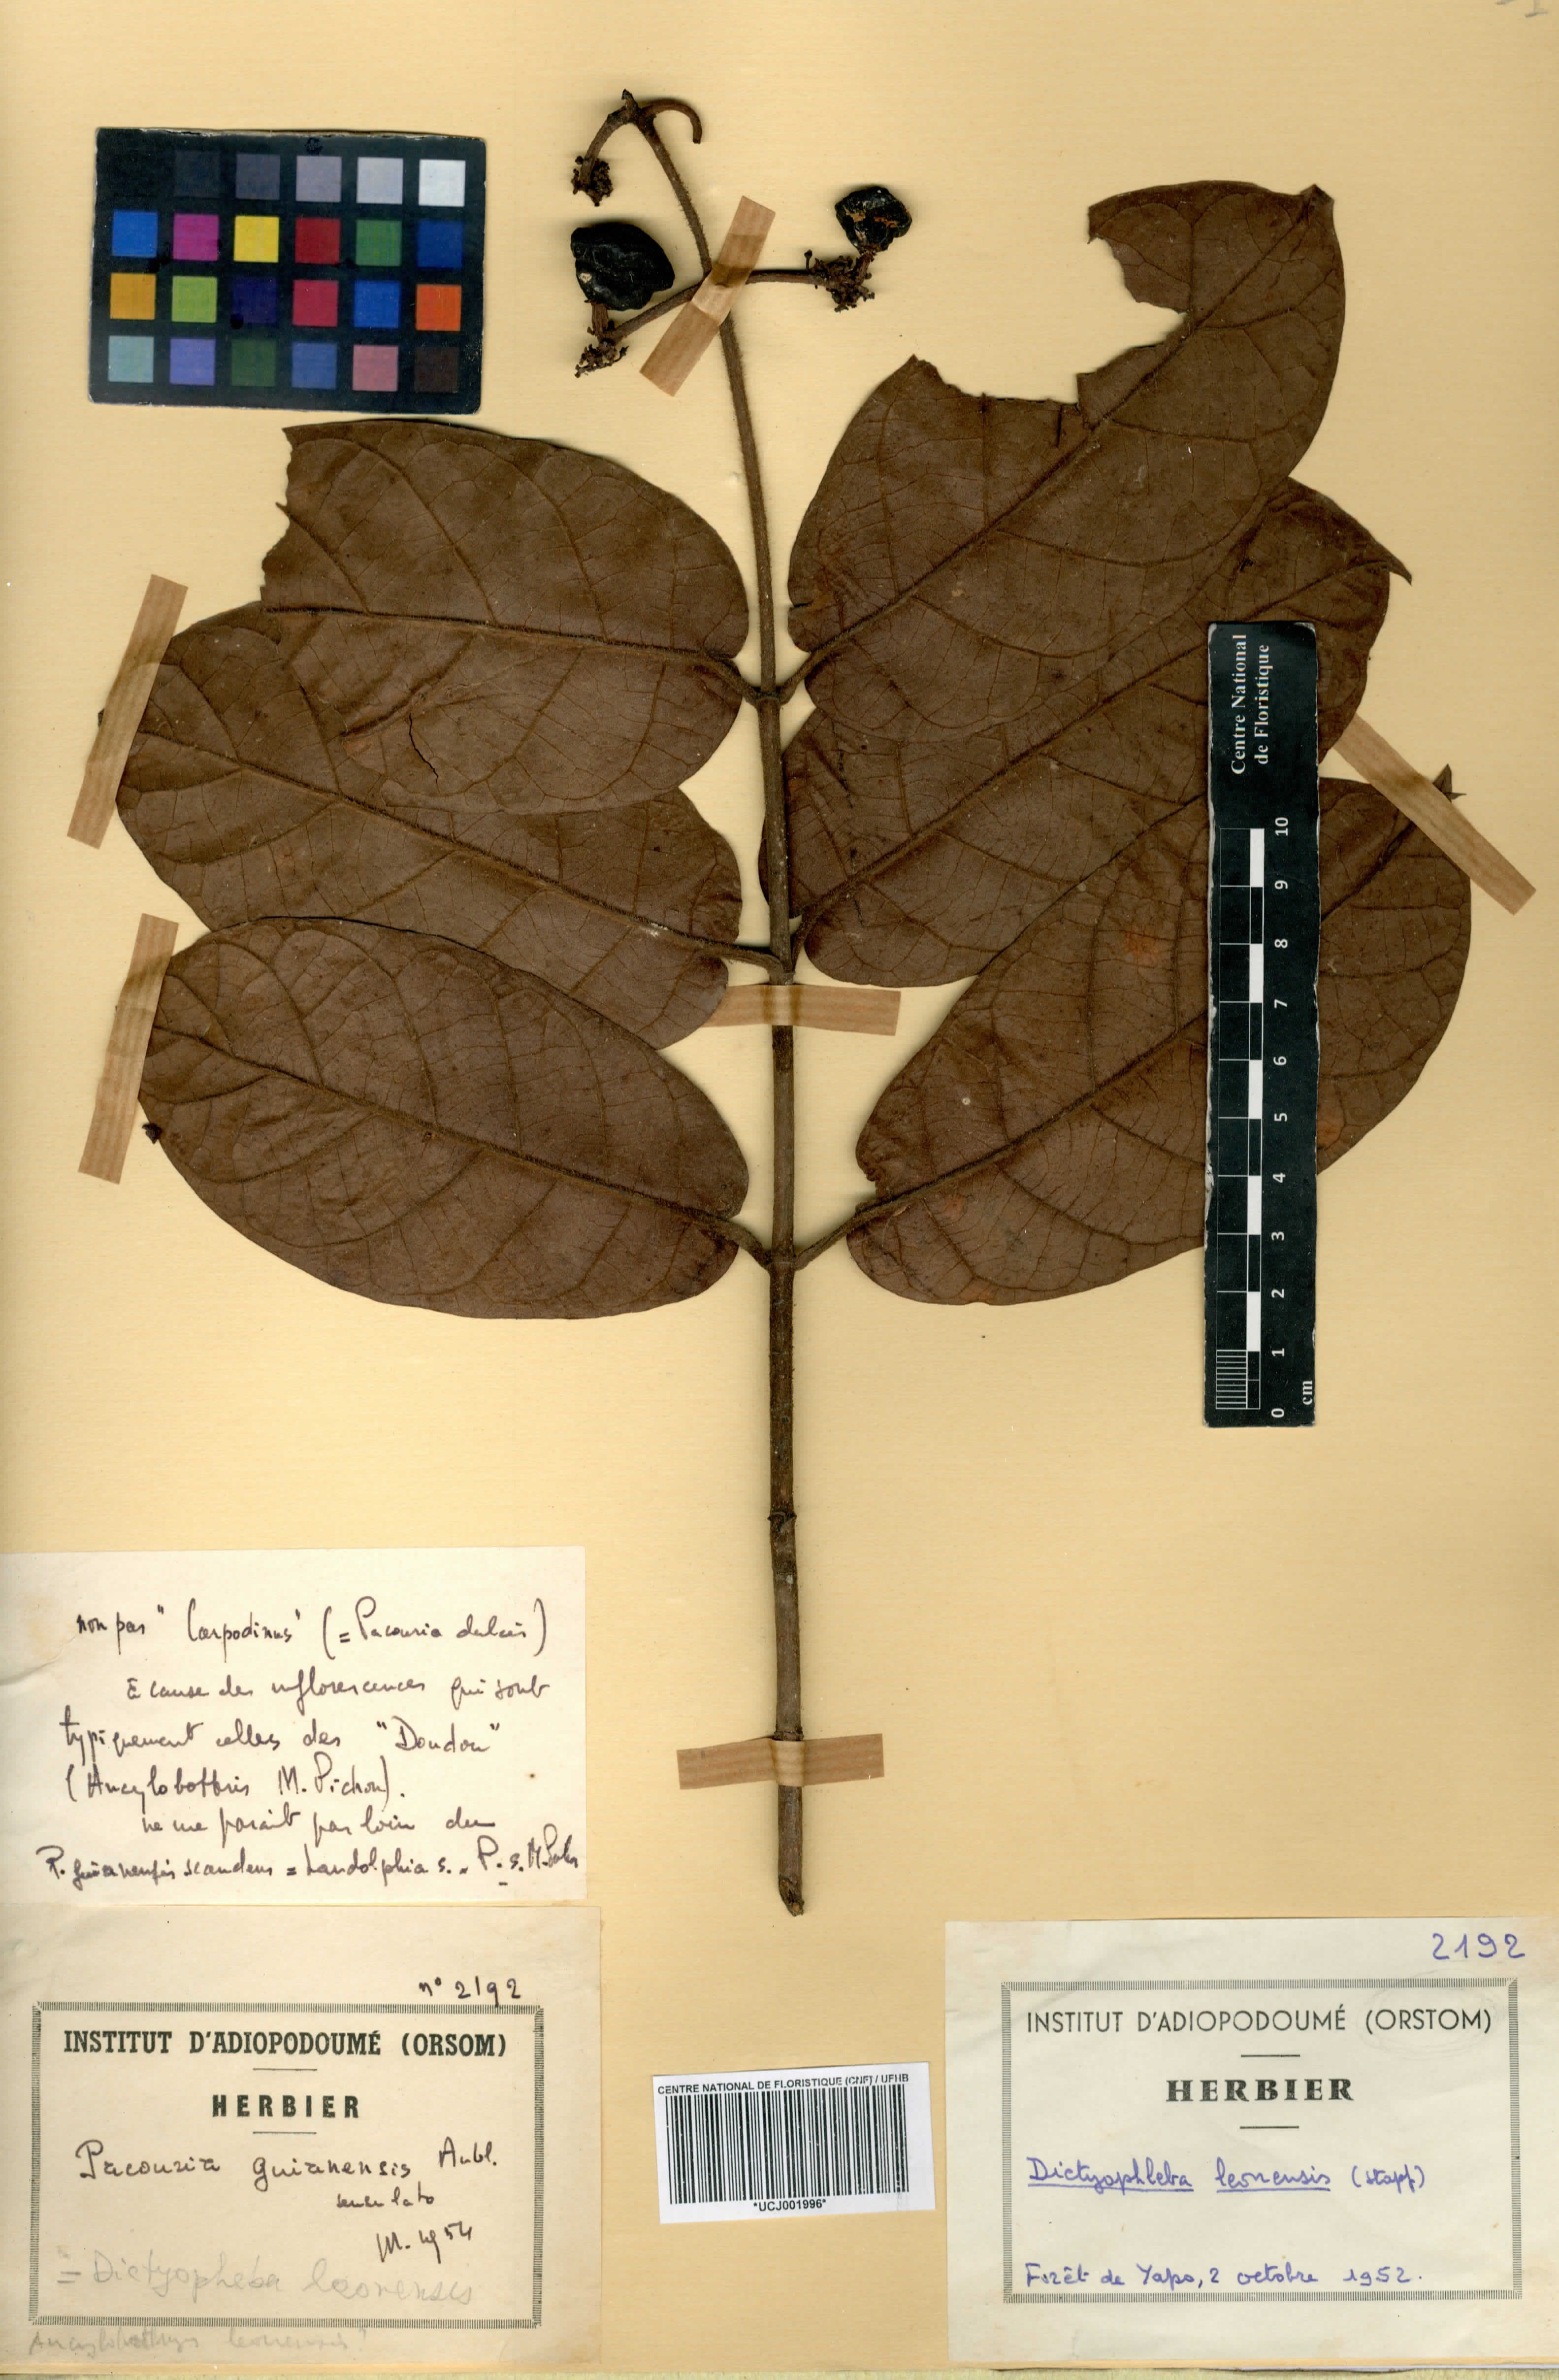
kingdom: Plantae
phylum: Tracheophyta
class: Magnoliopsida
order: Gentianales
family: Apocynaceae
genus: Dictyophleba
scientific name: Dictyophleba leonensis
